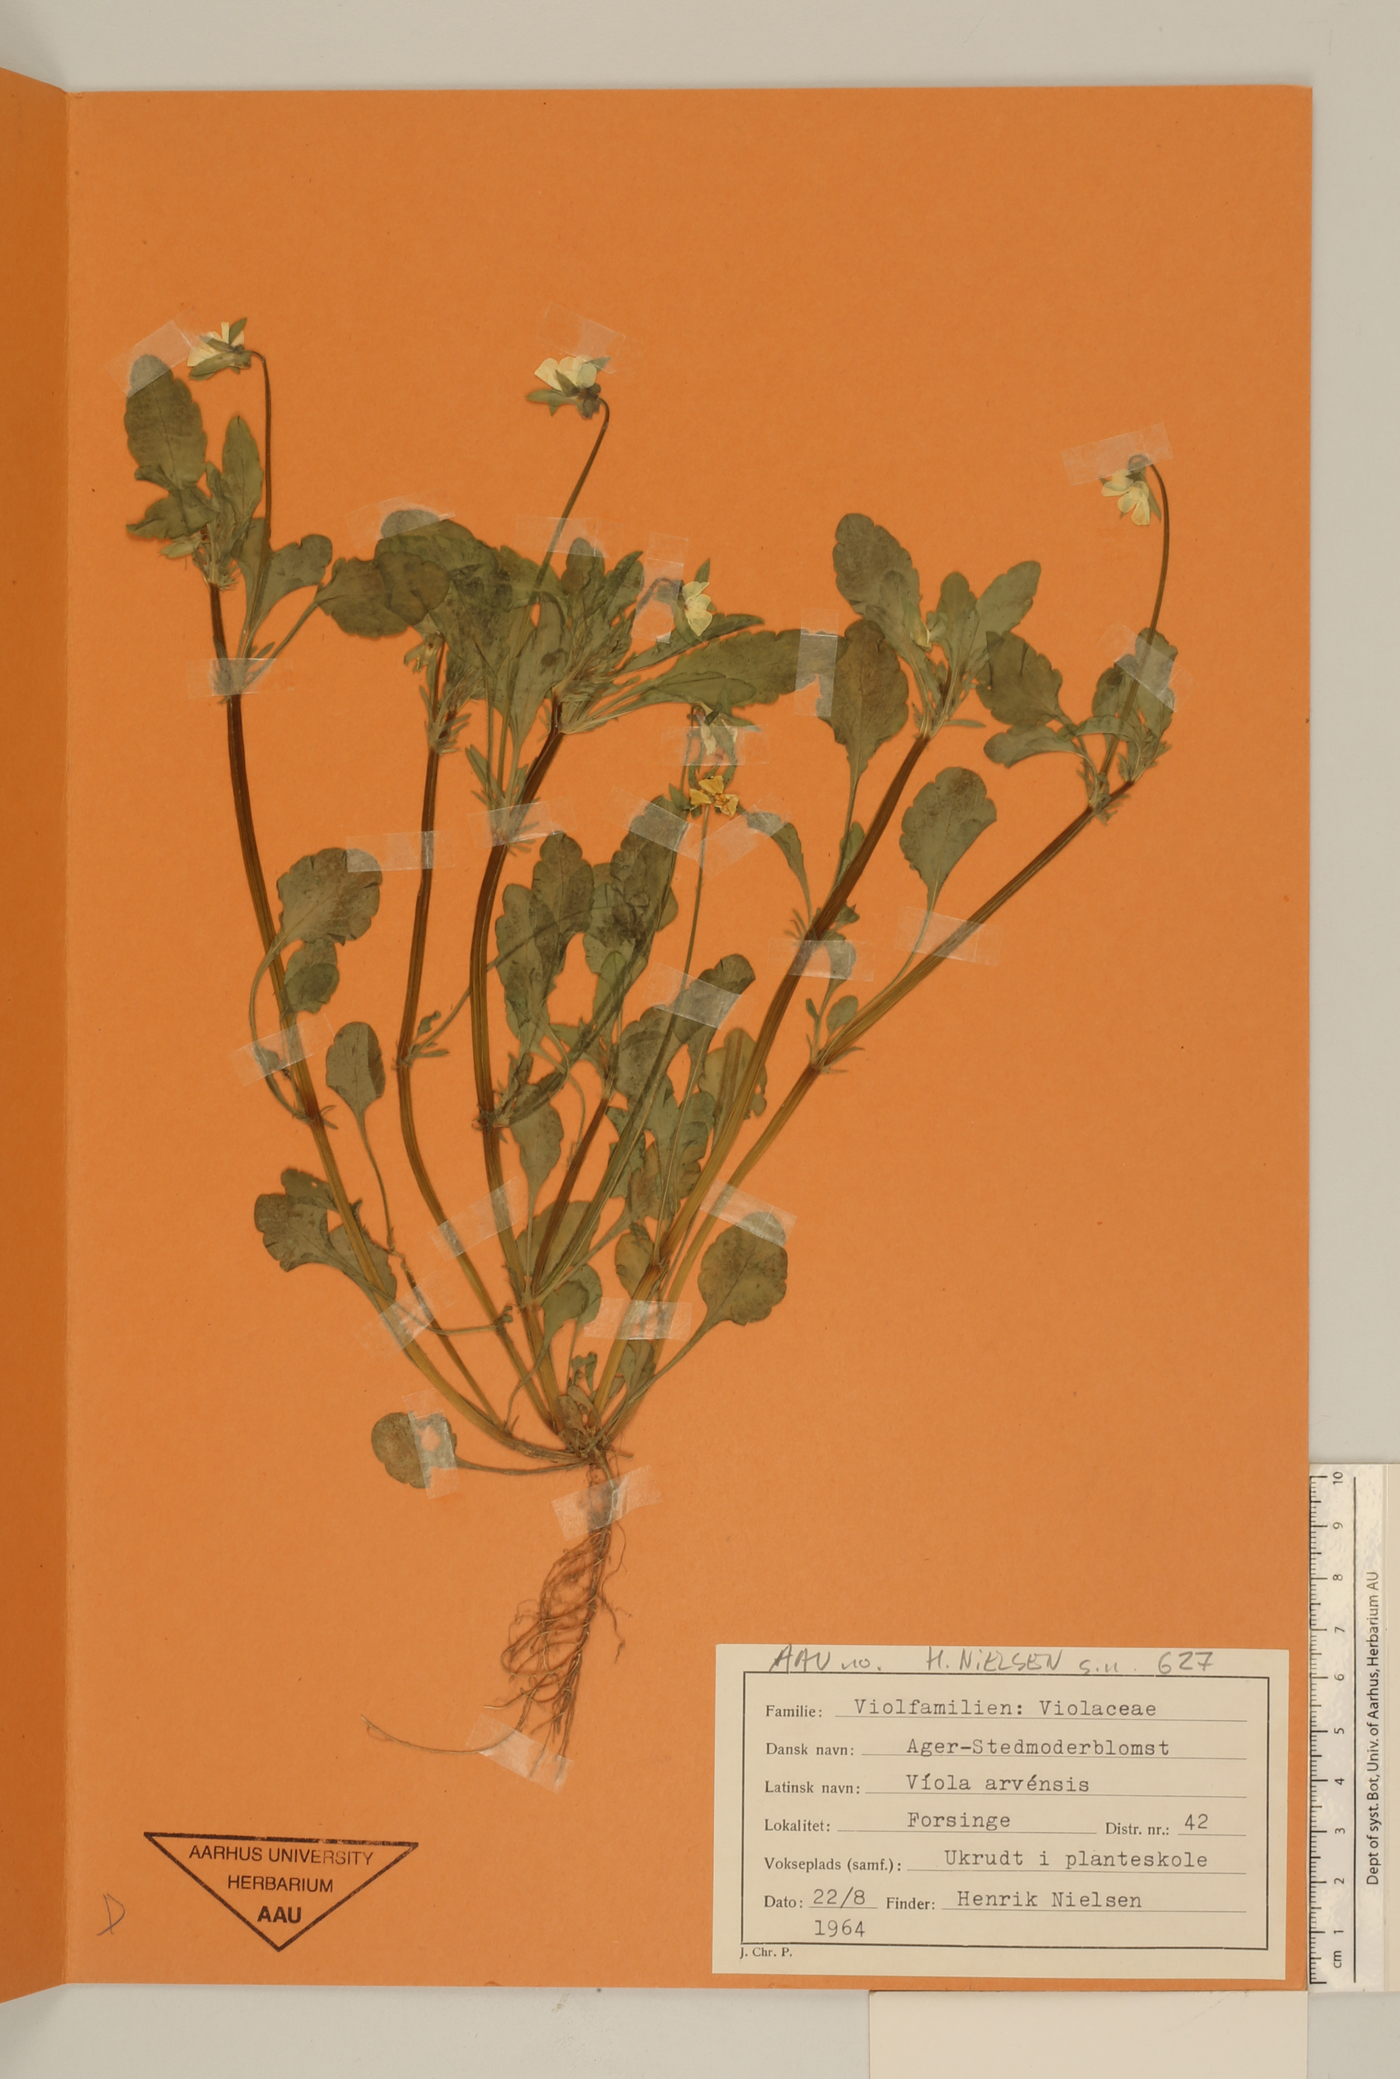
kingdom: Plantae
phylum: Tracheophyta
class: Magnoliopsida
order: Malpighiales
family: Violaceae
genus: Viola
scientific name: Viola arvensis
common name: Field pansy
